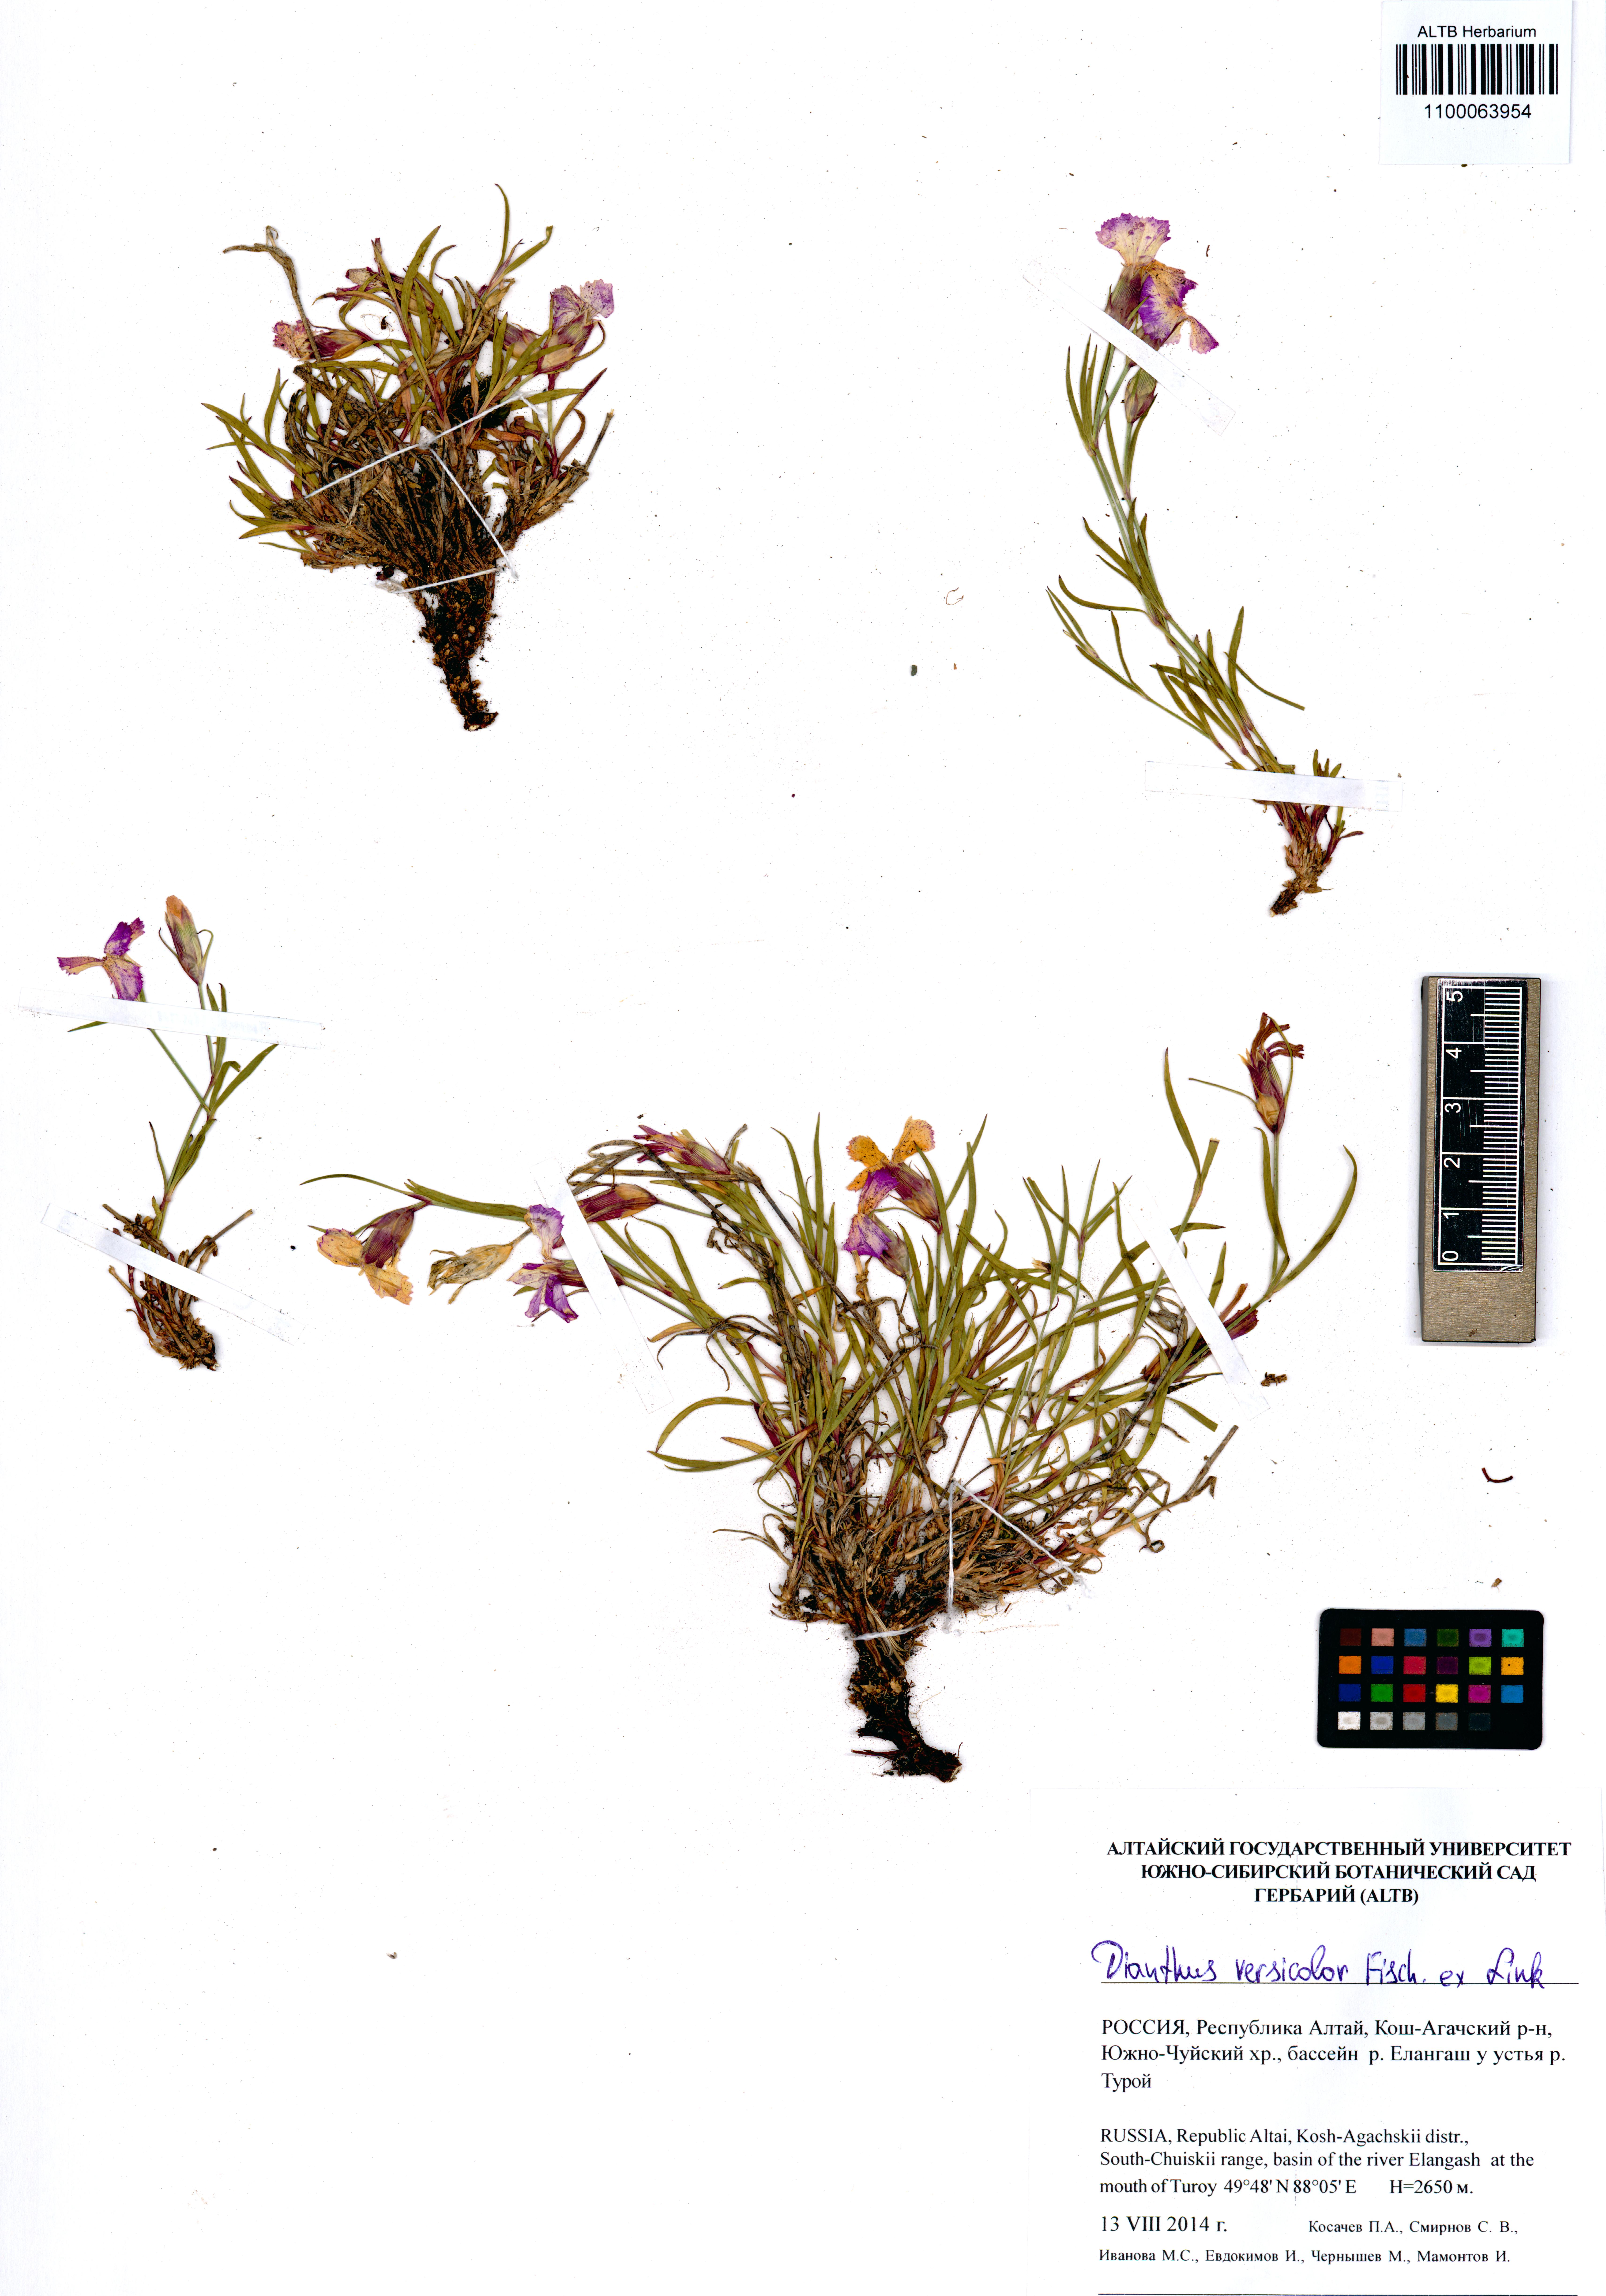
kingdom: Plantae
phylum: Tracheophyta
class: Magnoliopsida
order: Caryophyllales
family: Caryophyllaceae
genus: Dianthus
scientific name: Dianthus chinensis
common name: Rainbow pink
